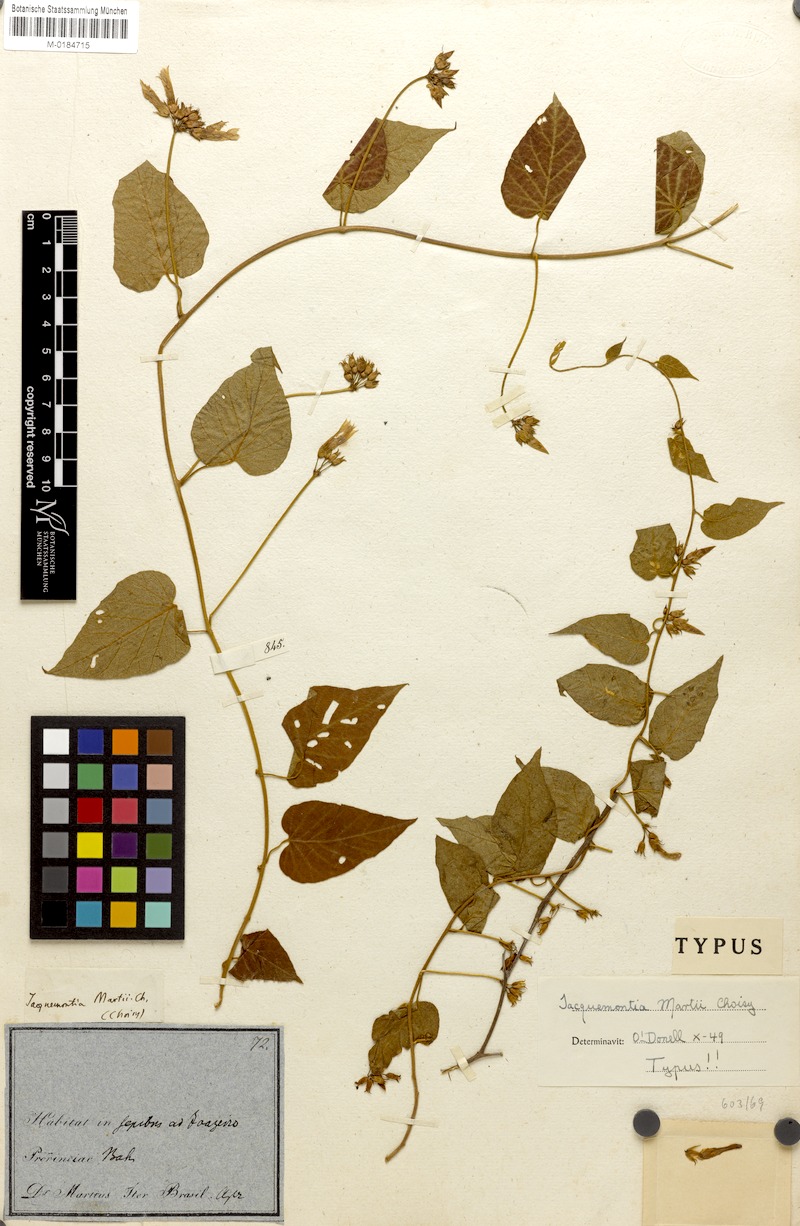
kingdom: Plantae
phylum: Tracheophyta
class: Magnoliopsida
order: Solanales
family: Convolvulaceae
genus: Jacquemontia
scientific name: Jacquemontia martii
